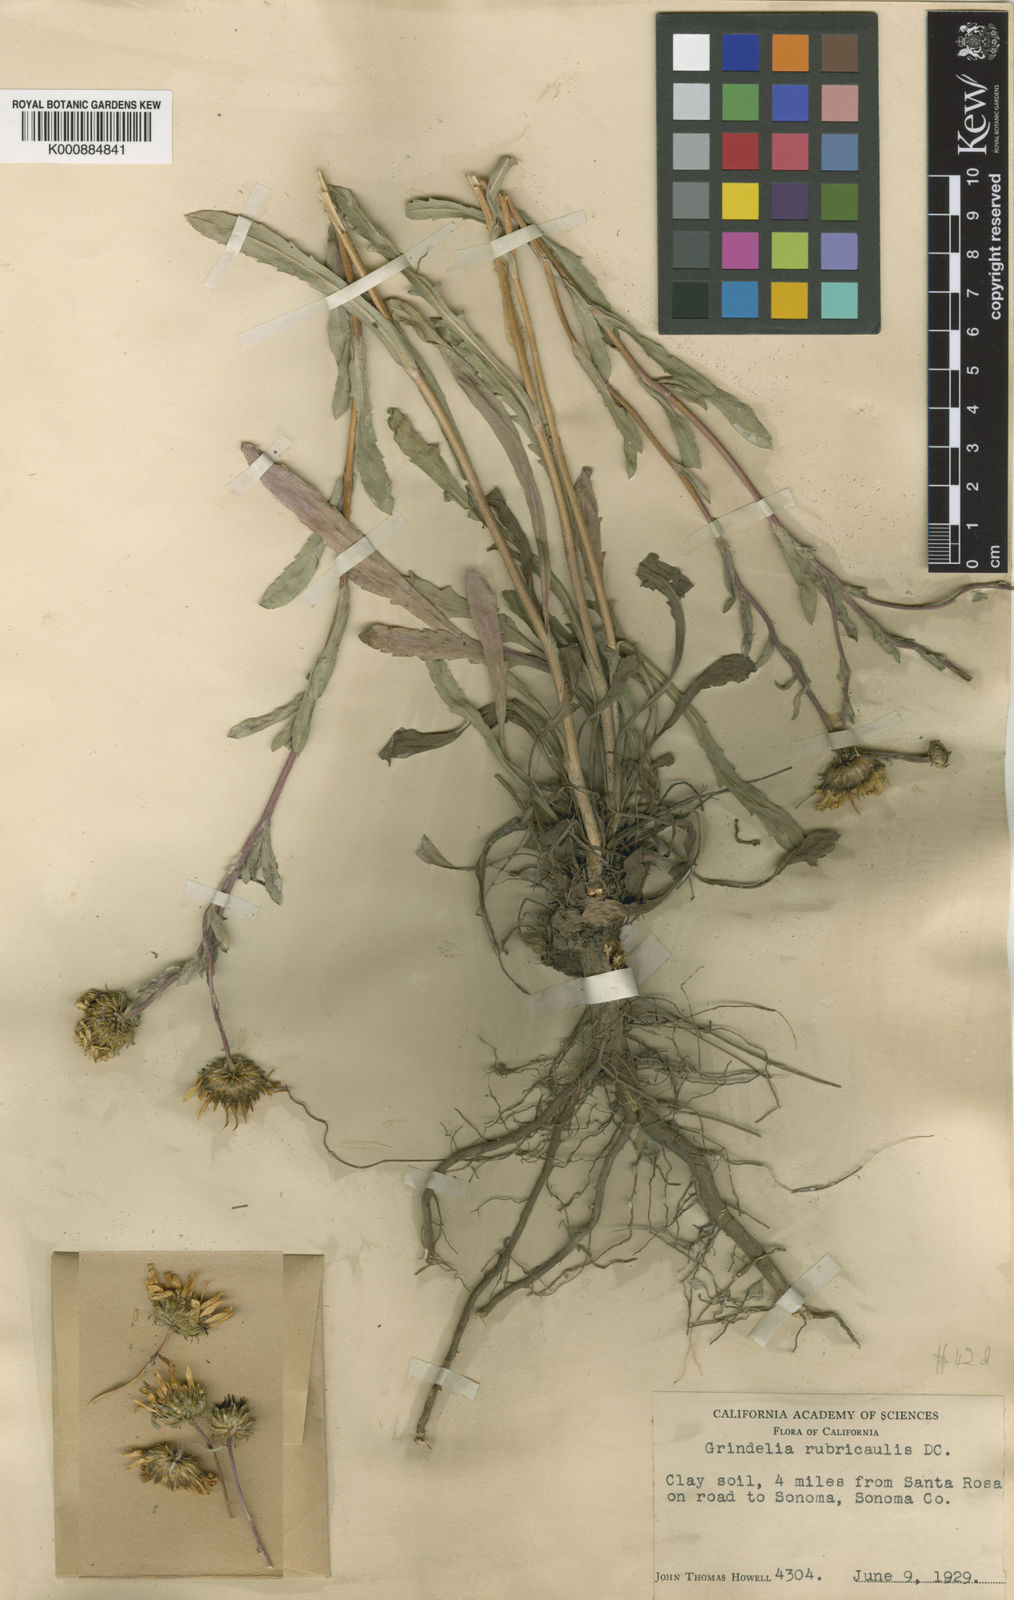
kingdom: Plantae
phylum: Tracheophyta
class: Magnoliopsida
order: Asterales
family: Asteraceae
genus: Grindelia
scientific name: Grindelia hirsutula
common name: Hairy gumweed
